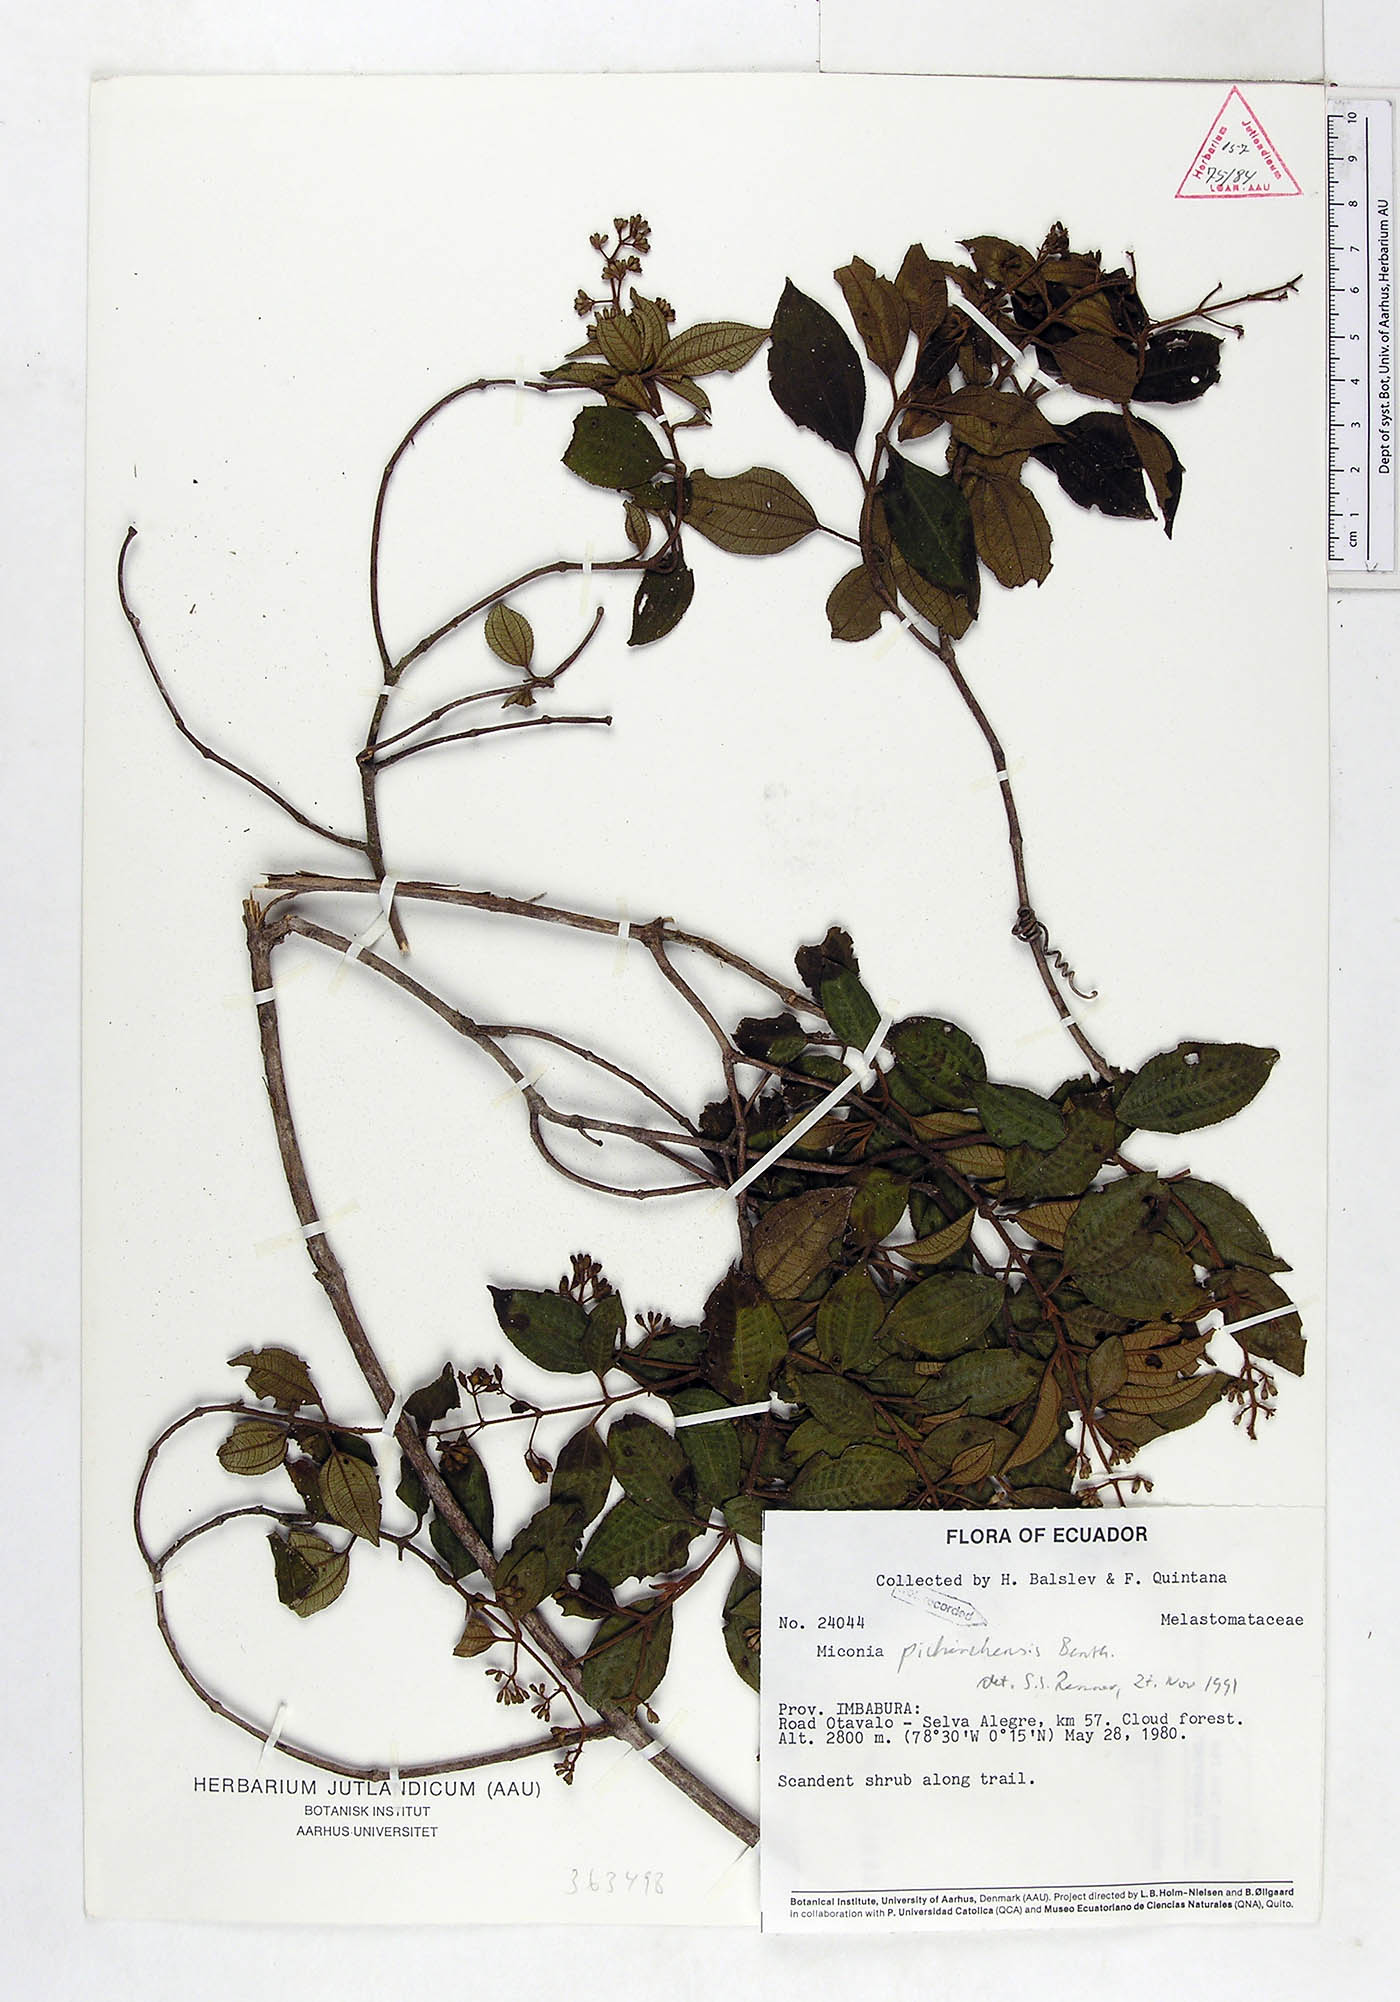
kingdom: Plantae
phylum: Tracheophyta
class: Magnoliopsida
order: Myrtales
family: Melastomataceae
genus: Miconia
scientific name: Miconia pichinchensis
